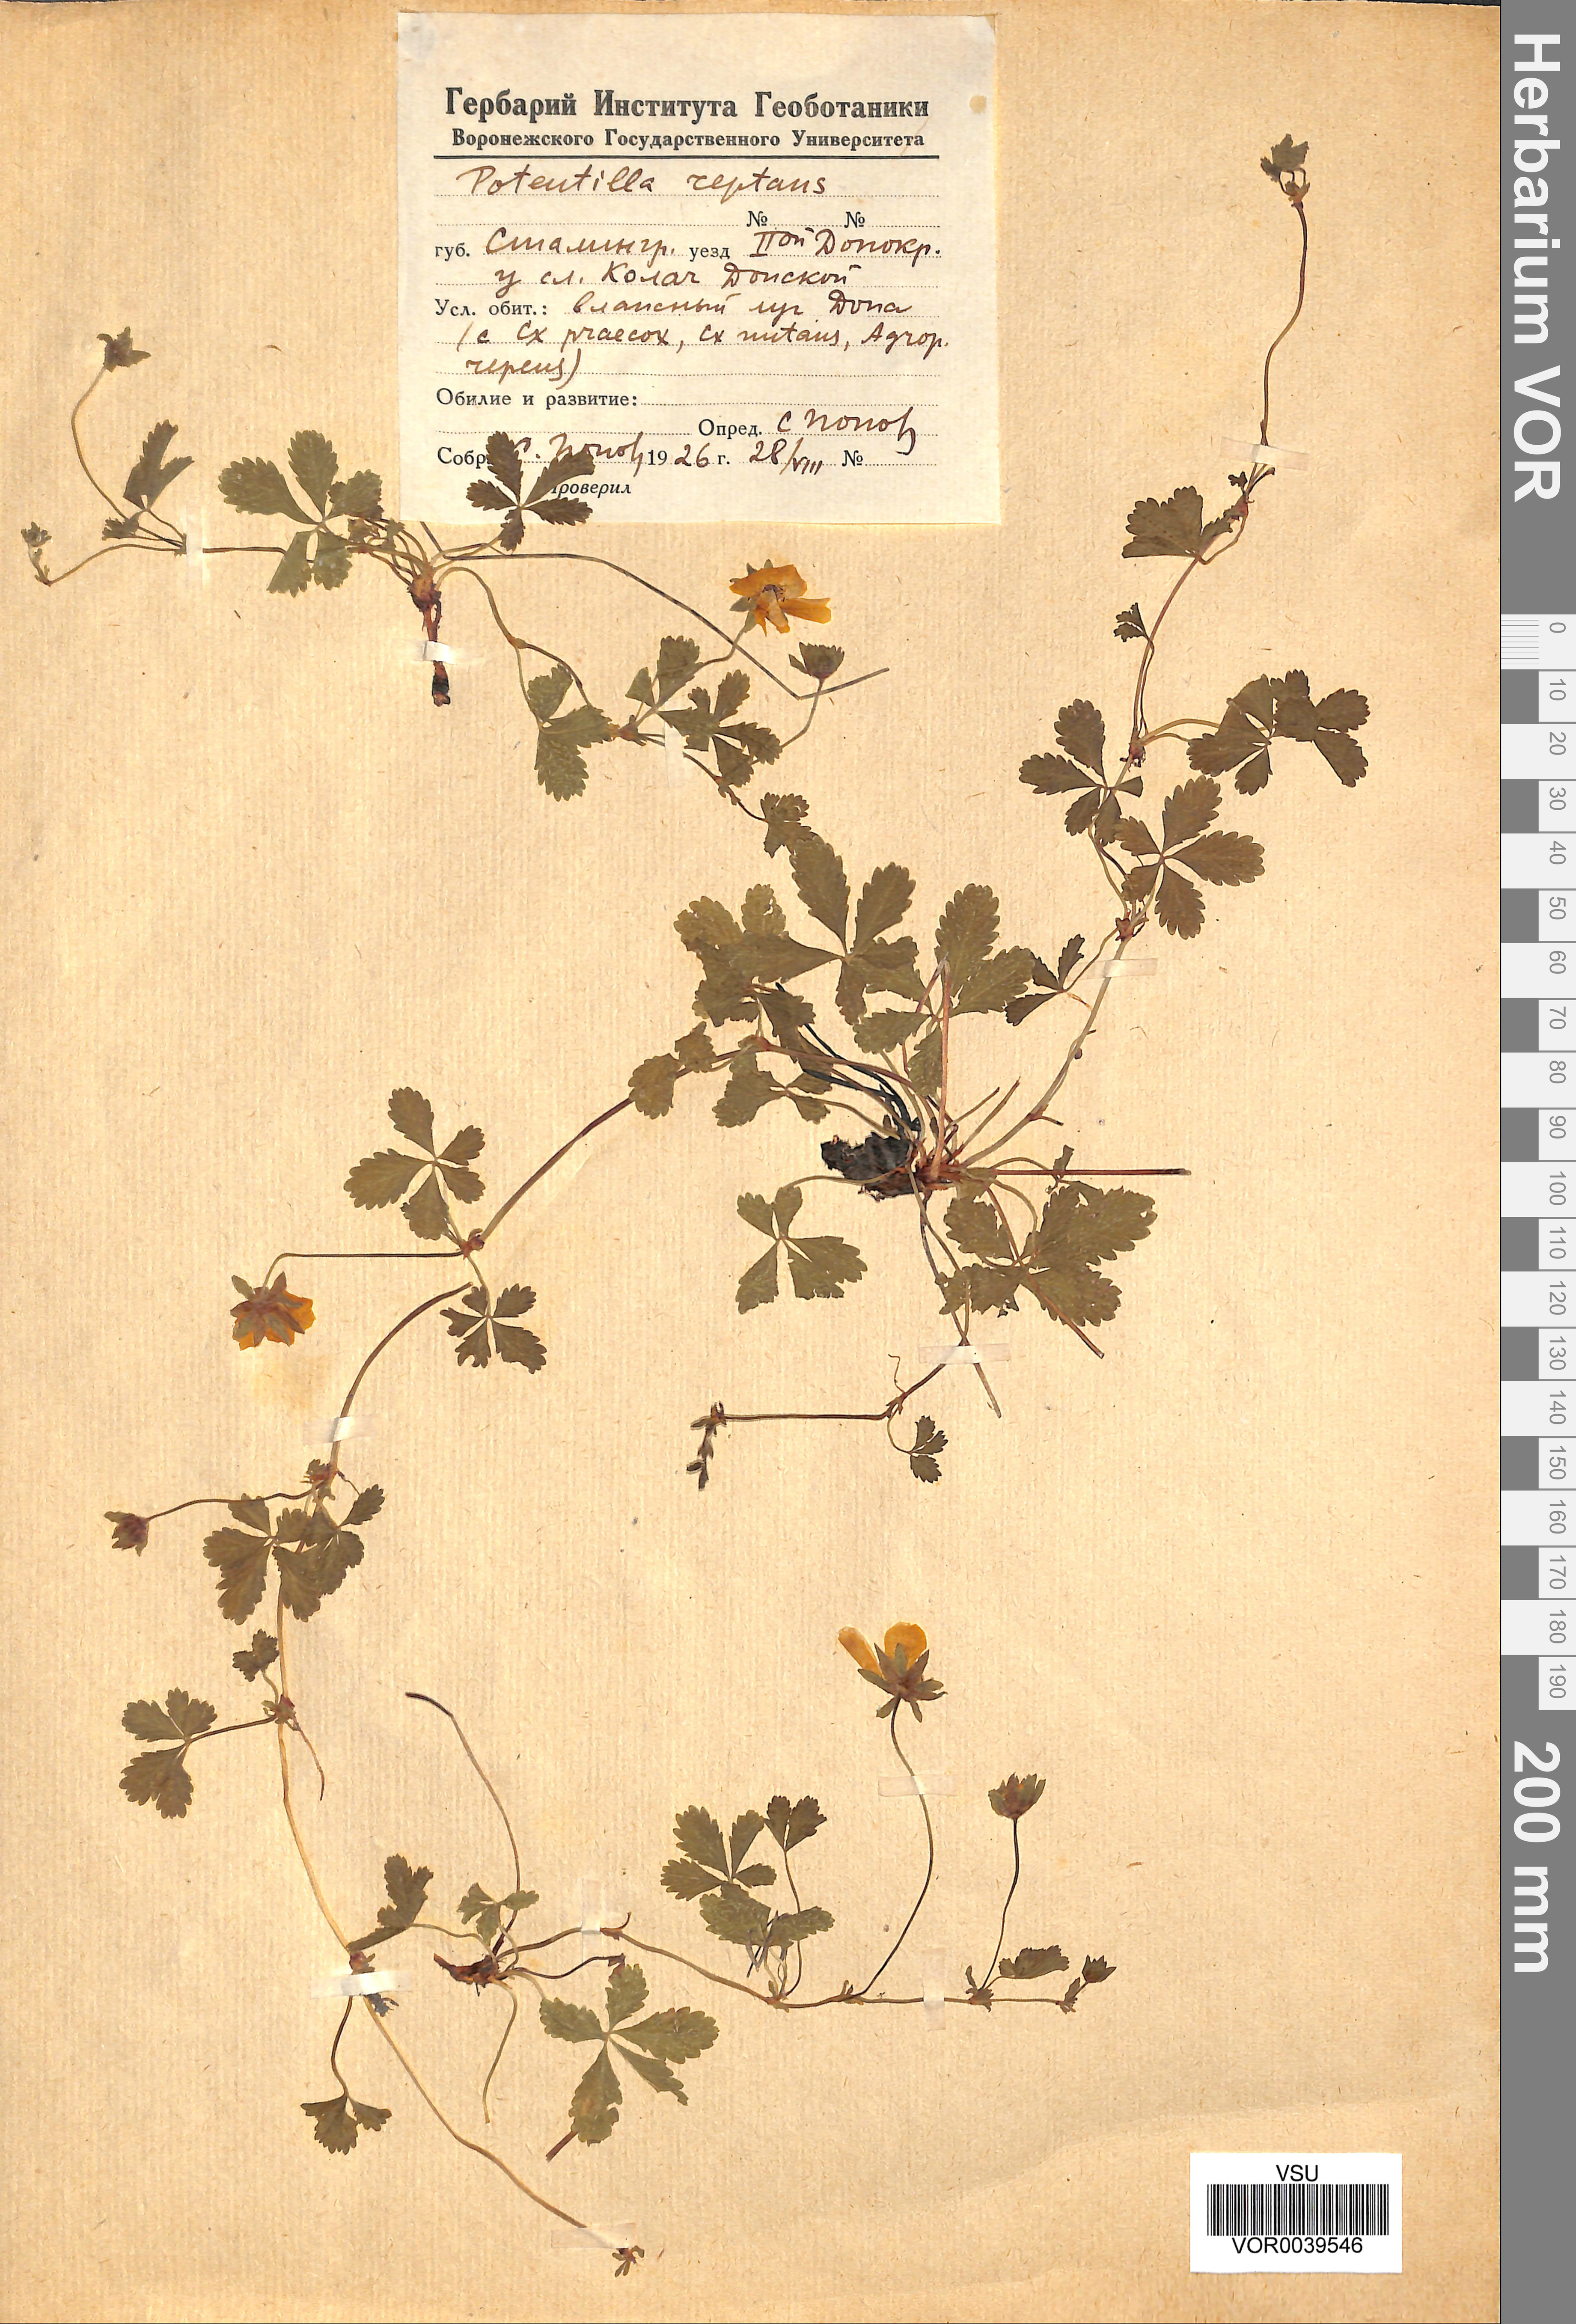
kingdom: Plantae
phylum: Tracheophyta
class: Magnoliopsida
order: Rosales
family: Rosaceae
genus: Potentilla
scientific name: Potentilla reptans
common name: Creeping cinquefoil
